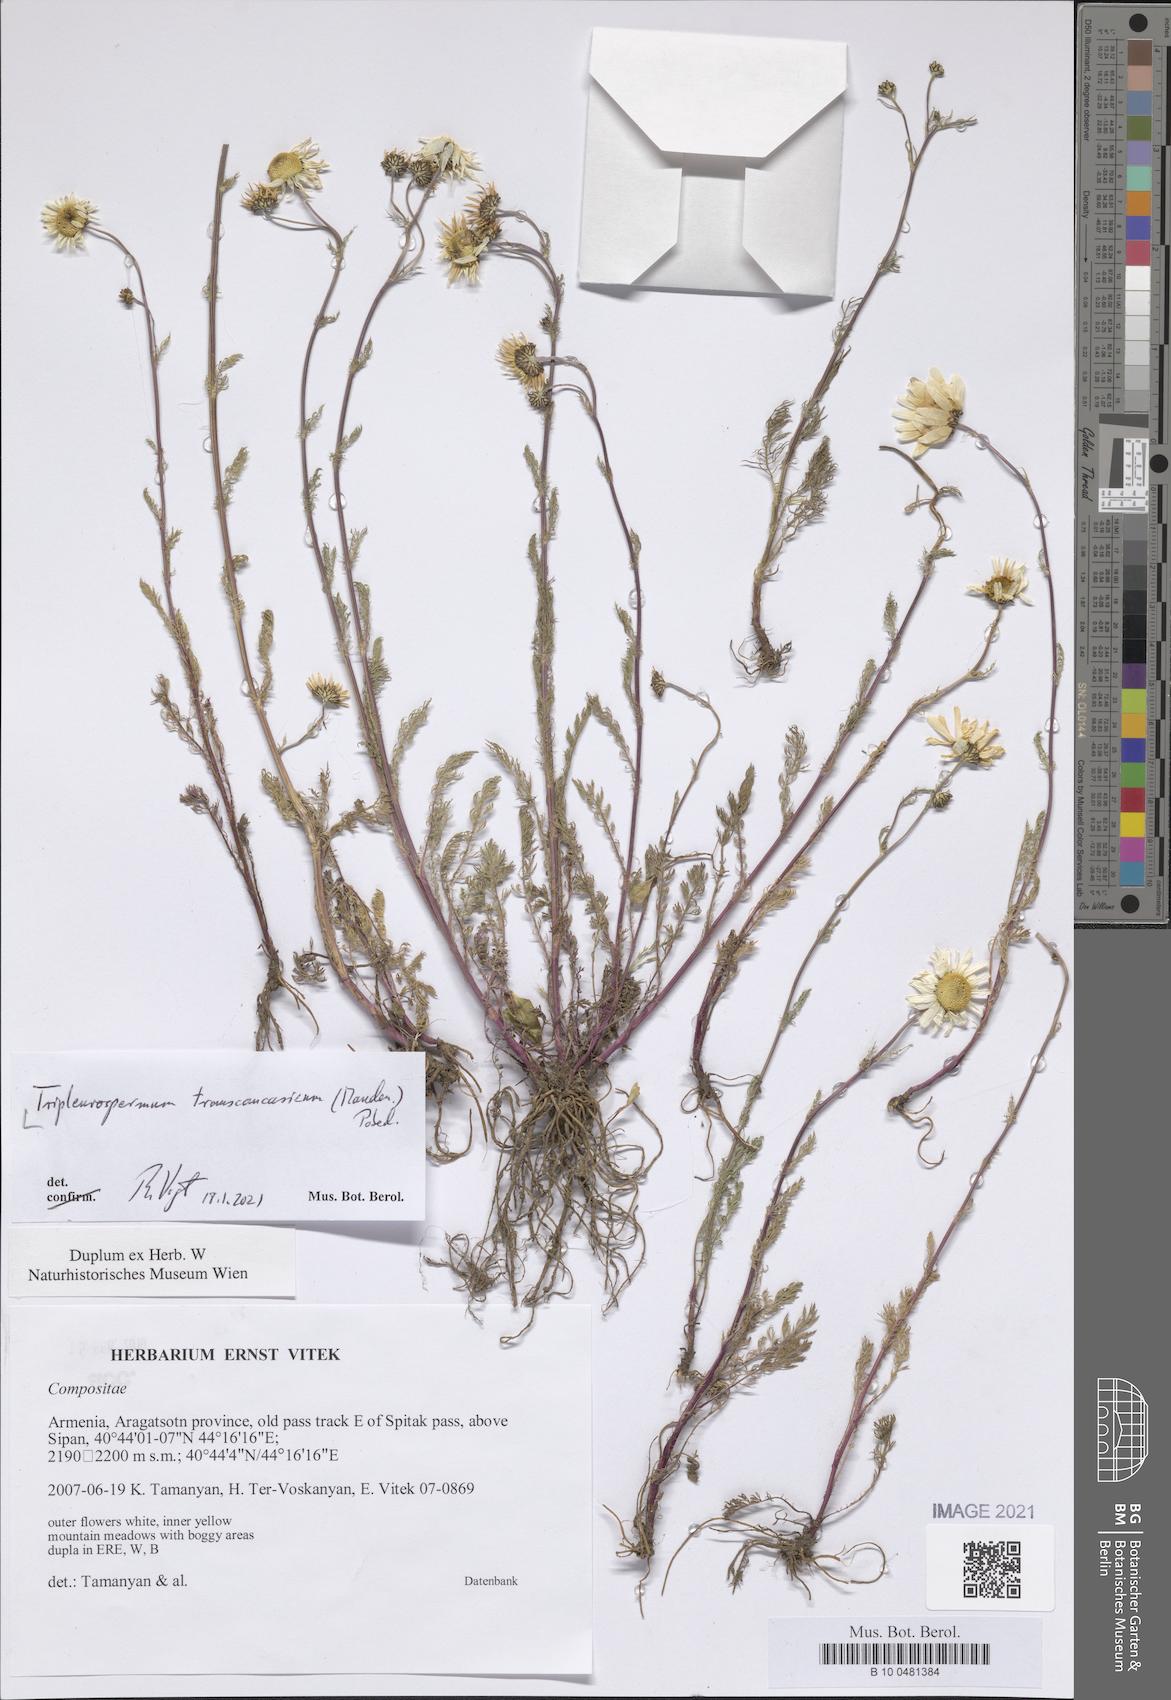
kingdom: Plantae
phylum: Tracheophyta
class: Magnoliopsida
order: Asterales
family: Asteraceae
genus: Tripleurospermum
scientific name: Tripleurospermum transcaucasicum
